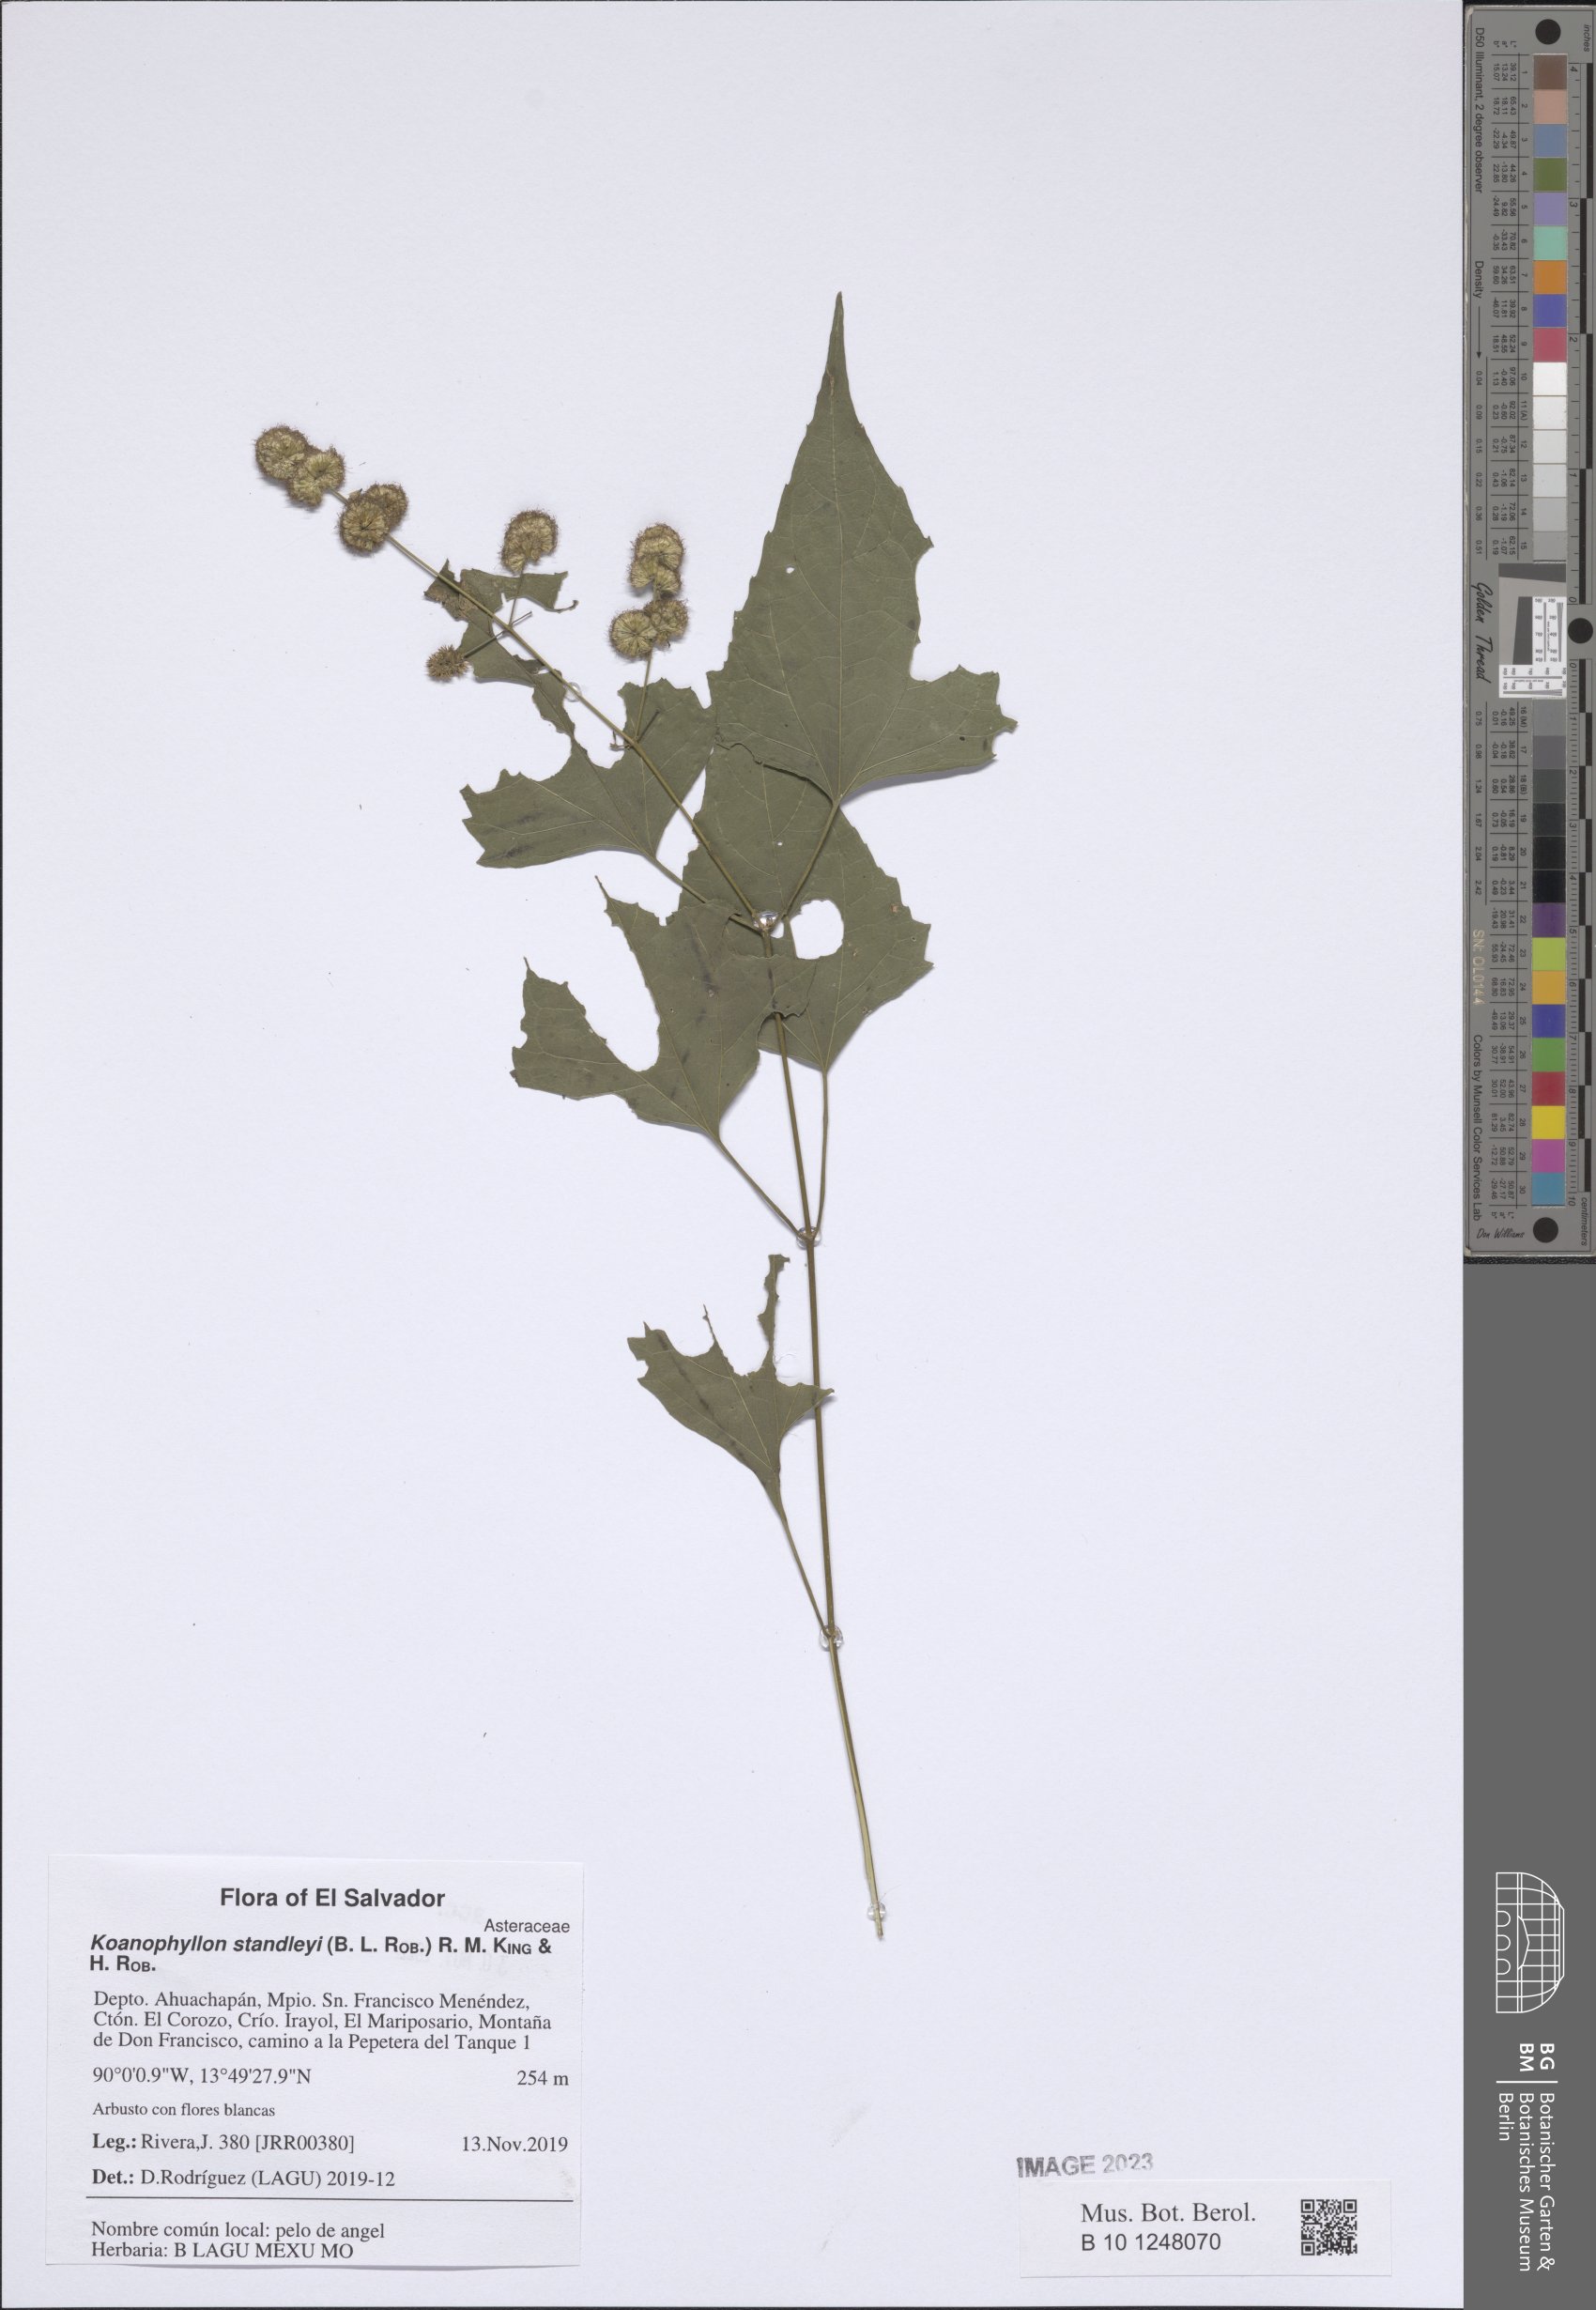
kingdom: Plantae
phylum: Tracheophyta
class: Magnoliopsida
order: Asterales
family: Asteraceae
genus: Koanophyllon
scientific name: Koanophyllon standleyi
